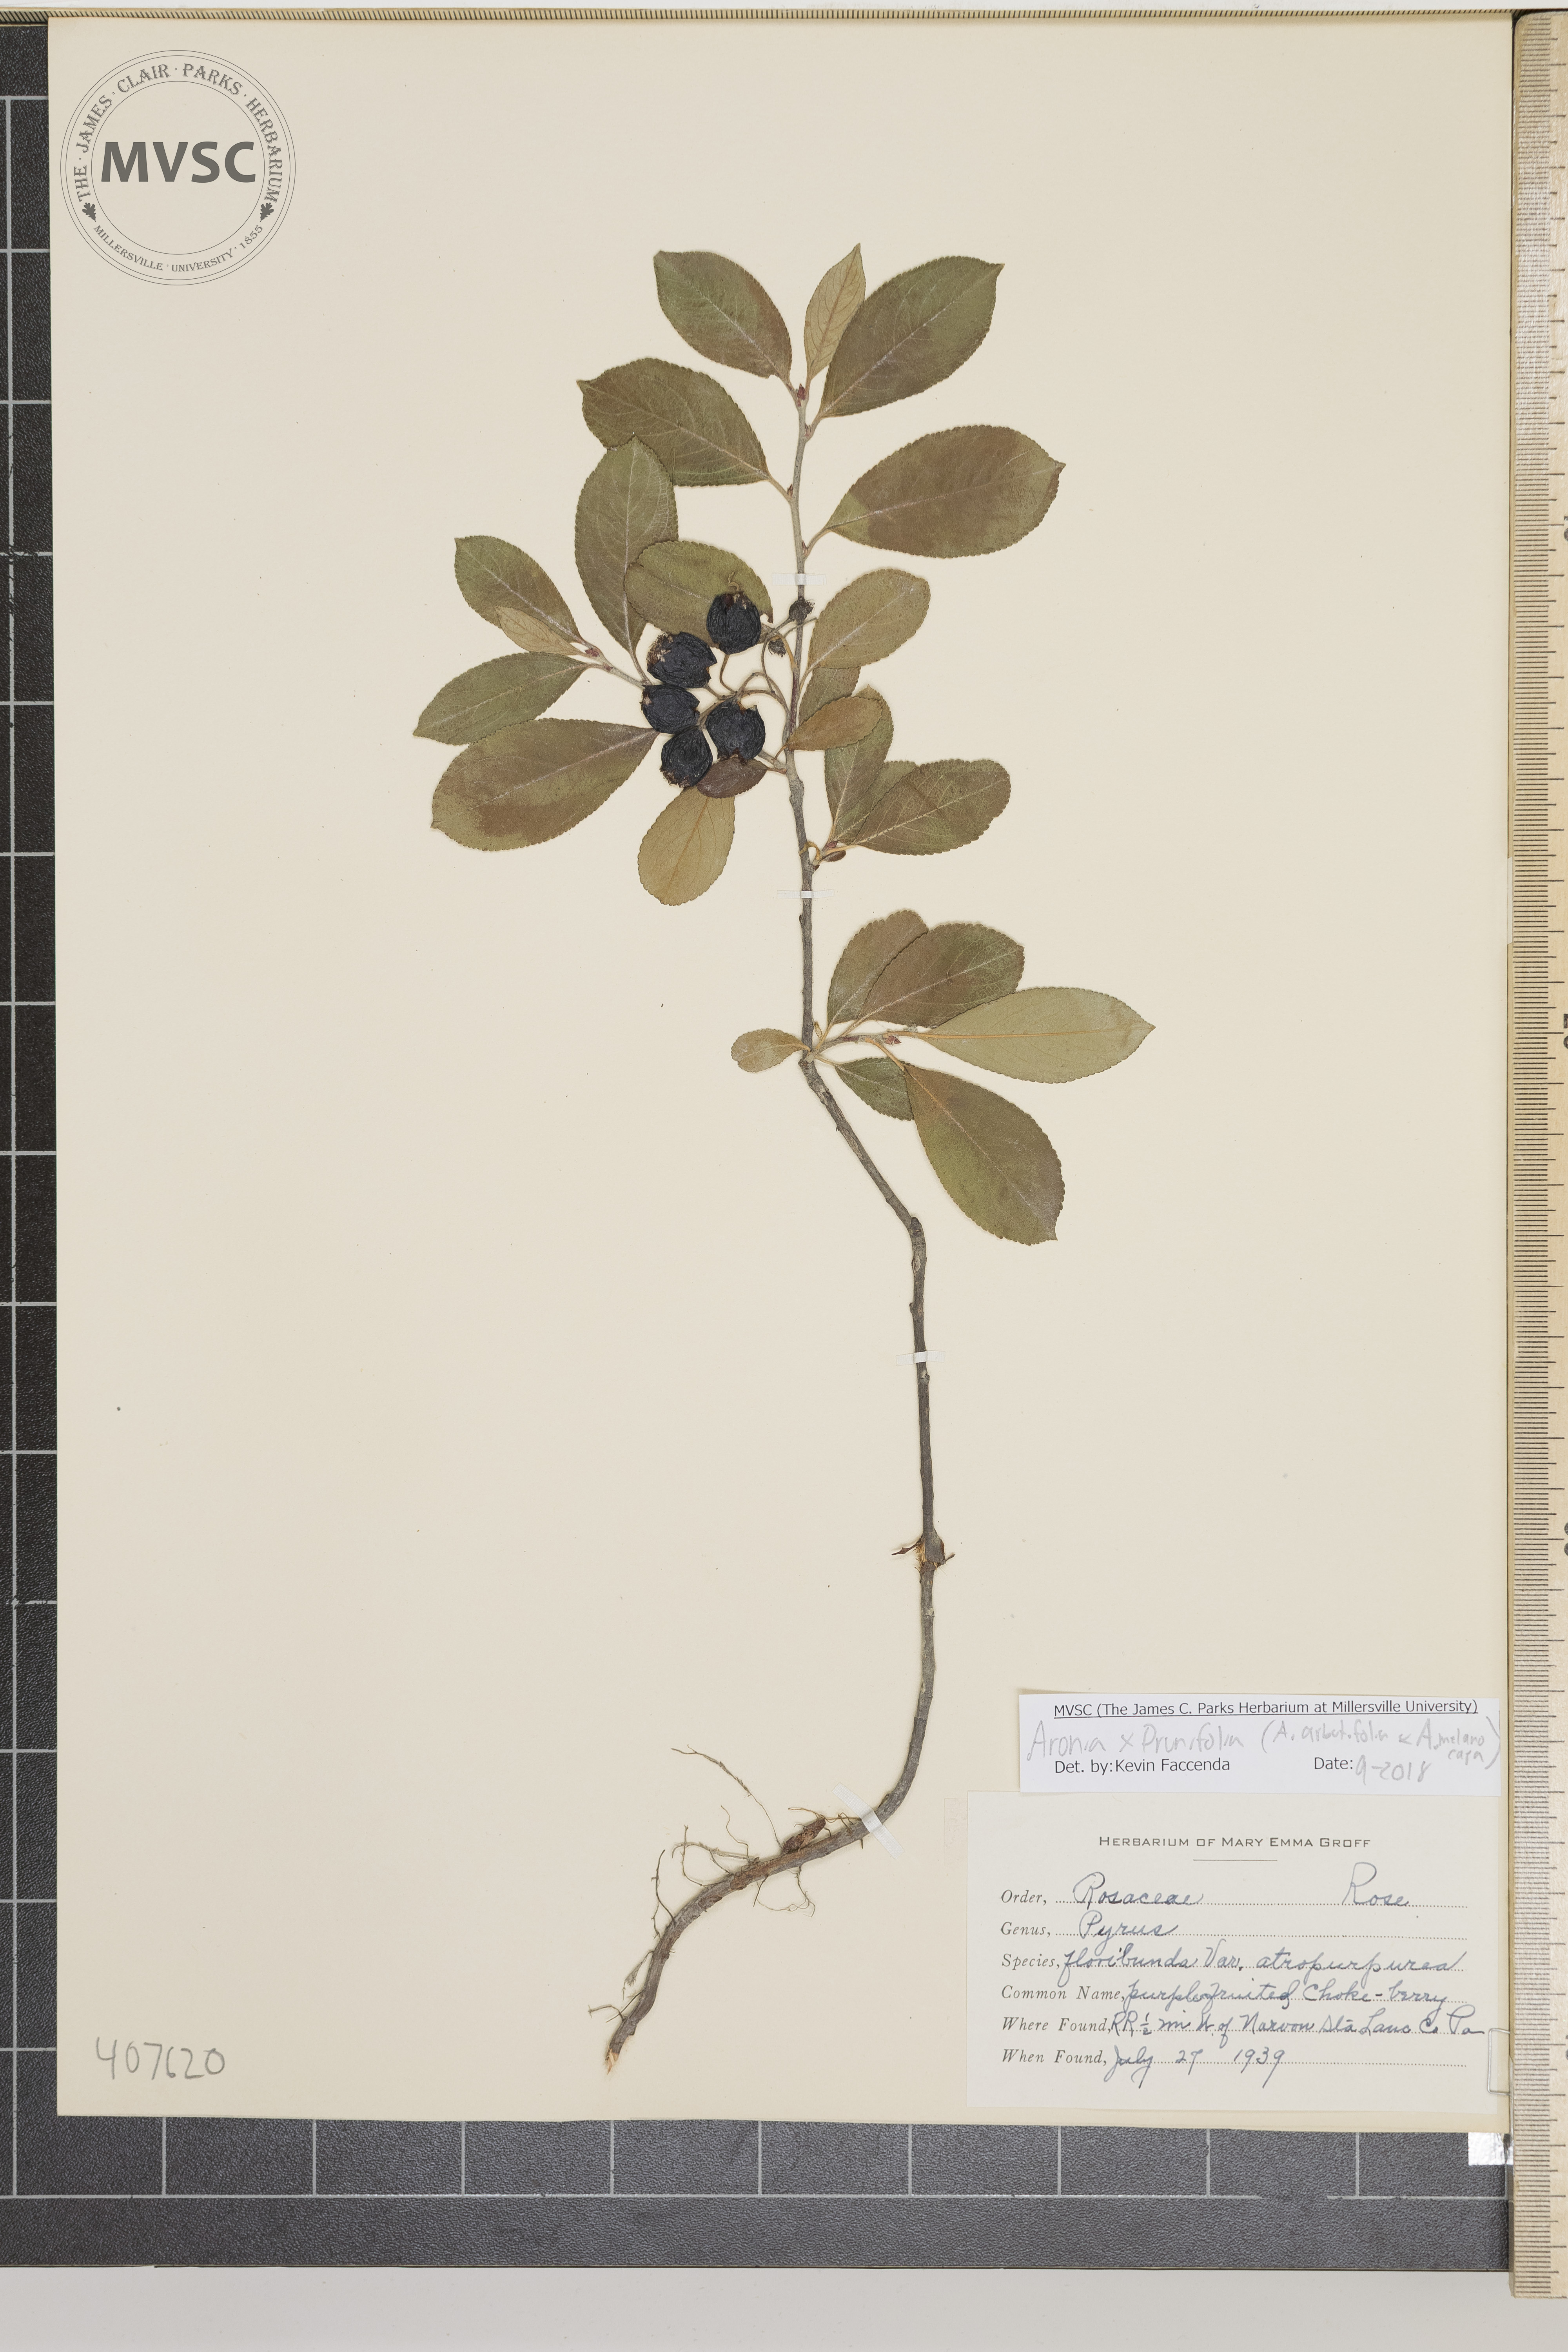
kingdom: Plantae
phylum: Tracheophyta
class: Magnoliopsida
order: Rosales
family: Rosaceae
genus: Aronia
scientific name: Aronia prunifolia
